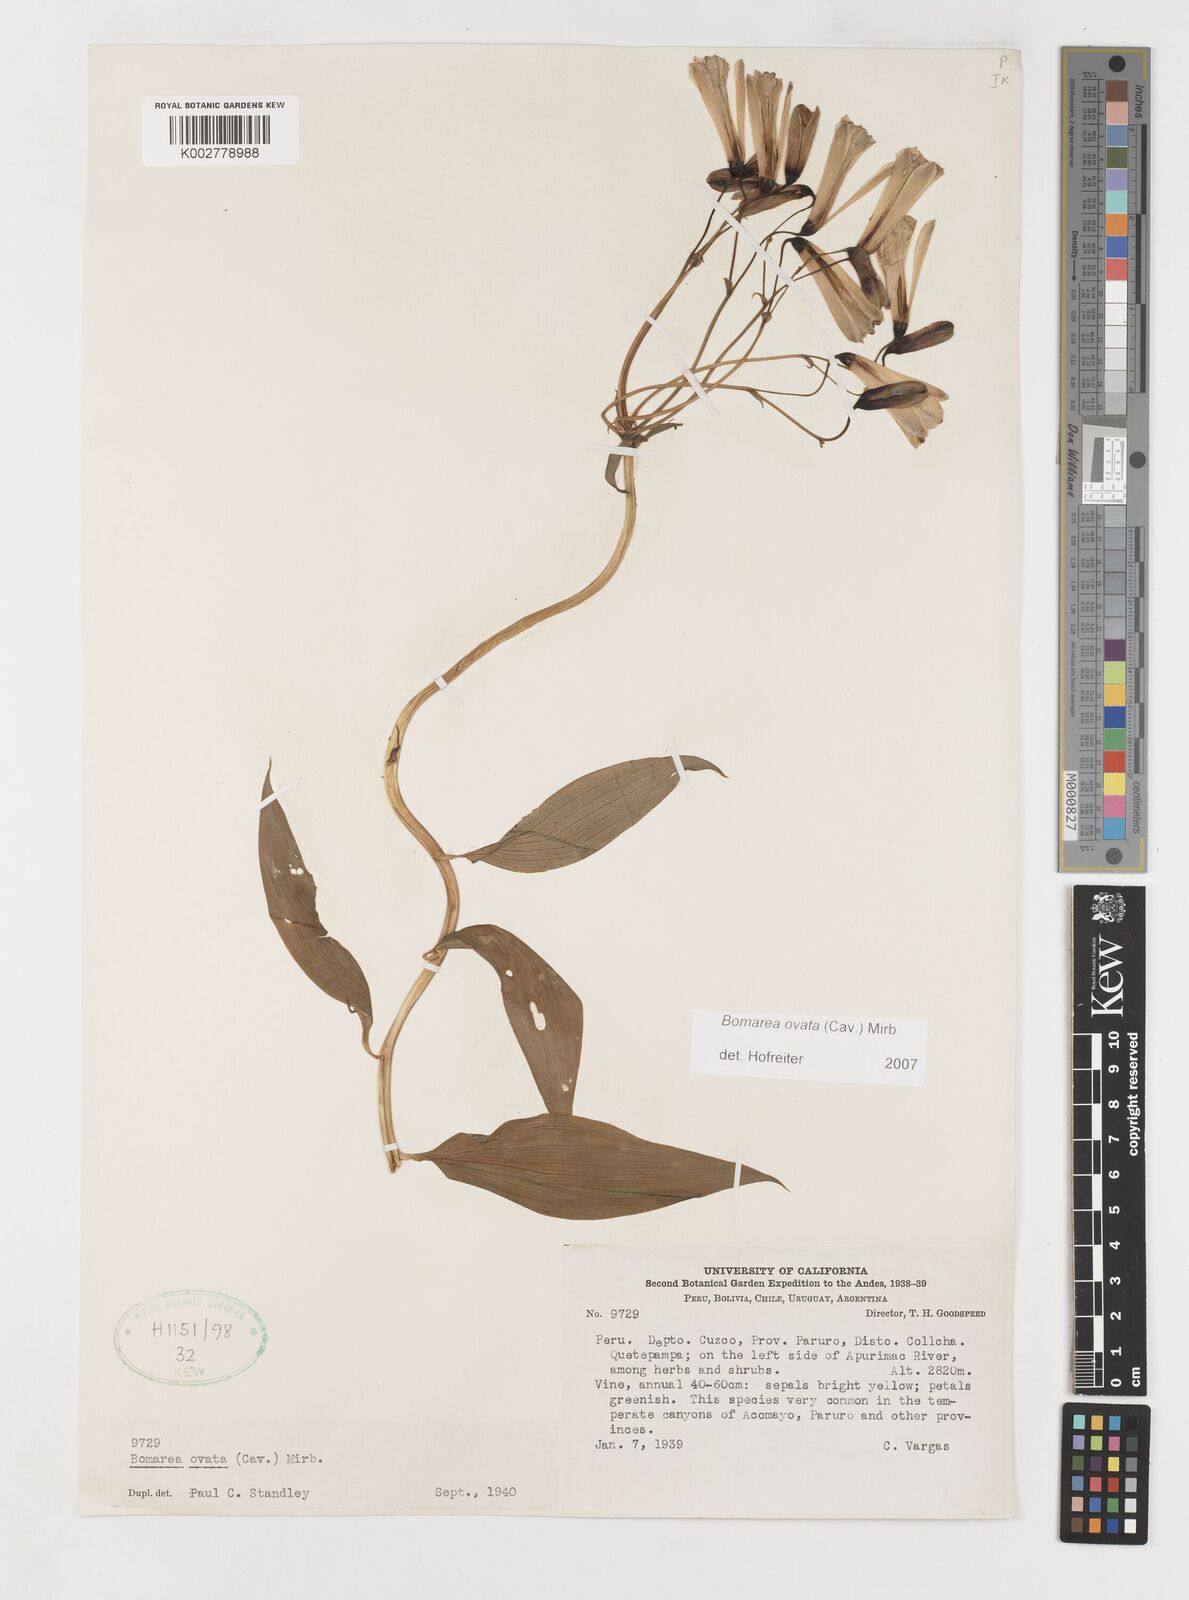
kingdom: Plantae
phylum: Tracheophyta
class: Liliopsida
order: Liliales
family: Alstroemeriaceae
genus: Bomarea
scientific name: Bomarea ovata
